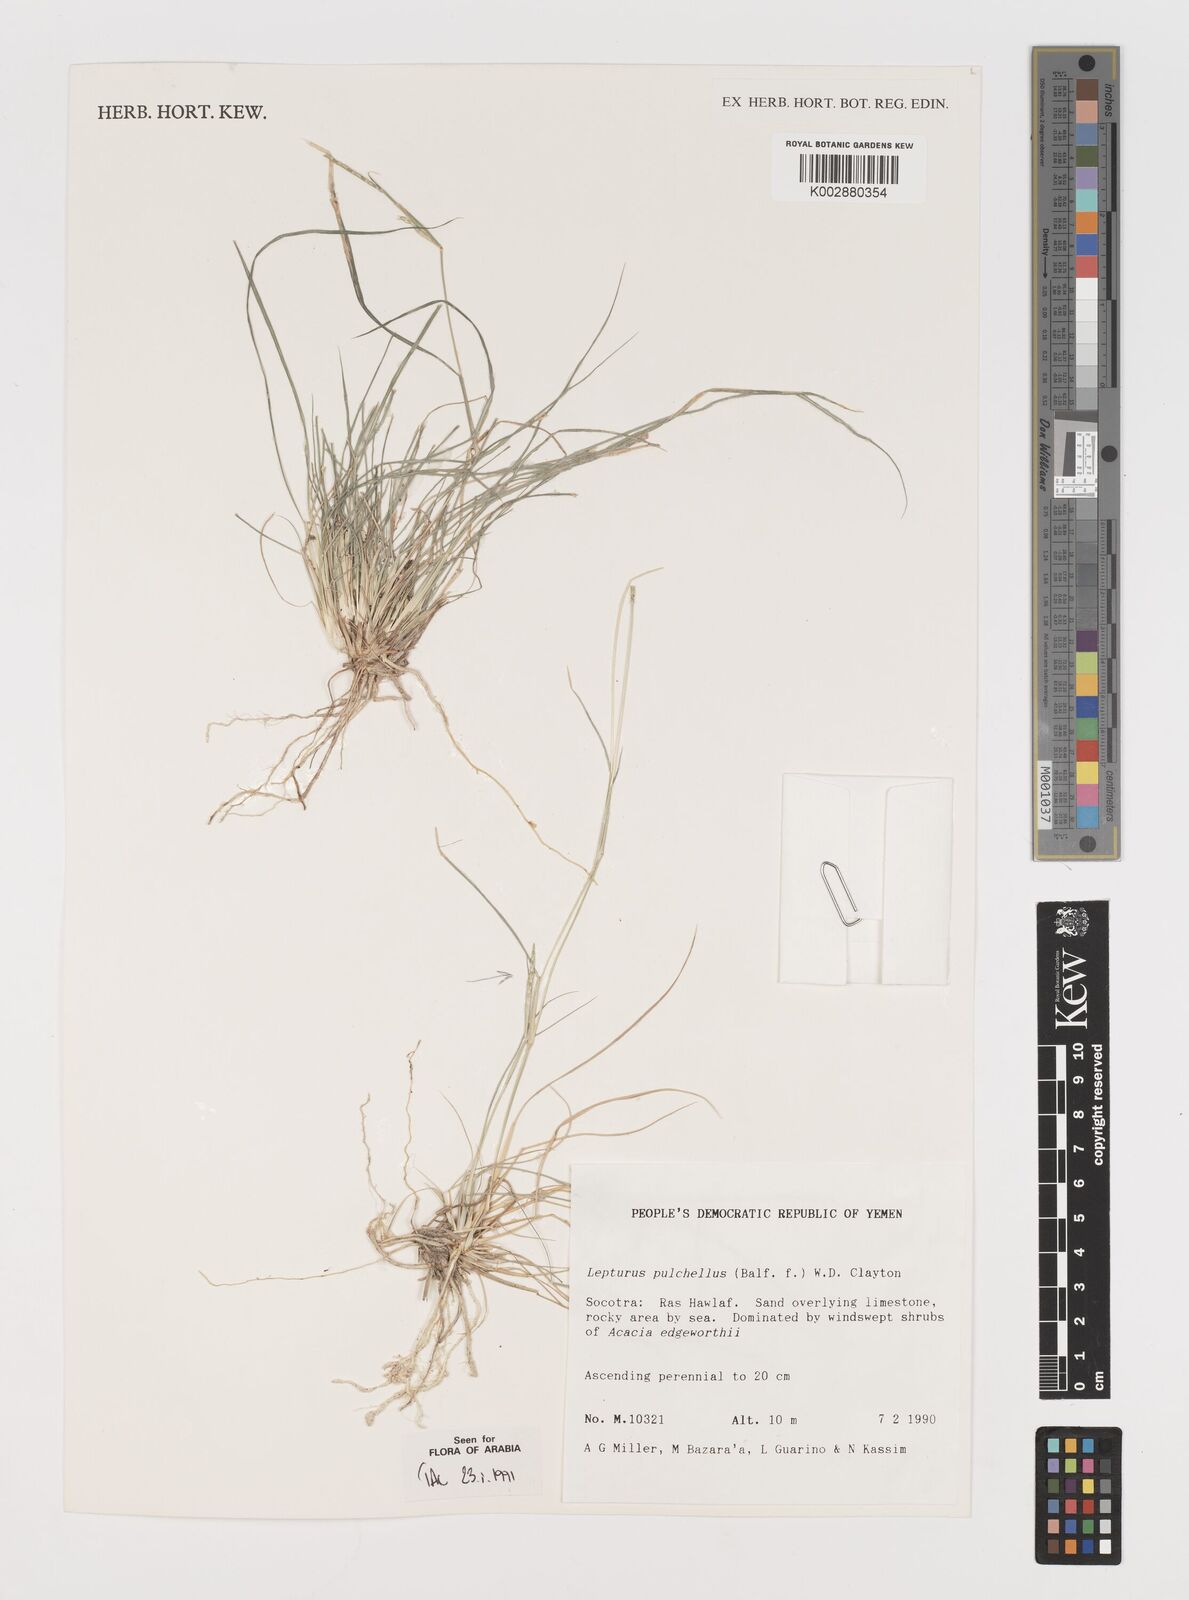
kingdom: Plantae
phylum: Tracheophyta
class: Liliopsida
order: Poales
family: Poaceae
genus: Lepturus
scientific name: Lepturus pulchellus
